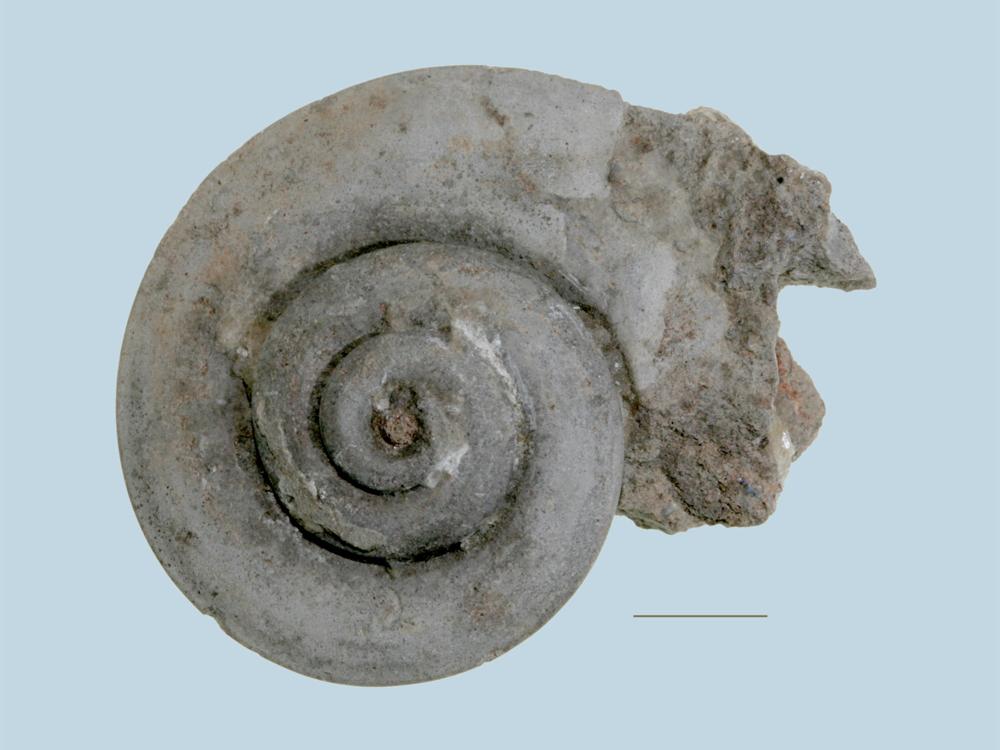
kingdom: Animalia
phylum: Mollusca
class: Gastropoda
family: Raphistomatidae
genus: Raphistoma
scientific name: Raphistoma
